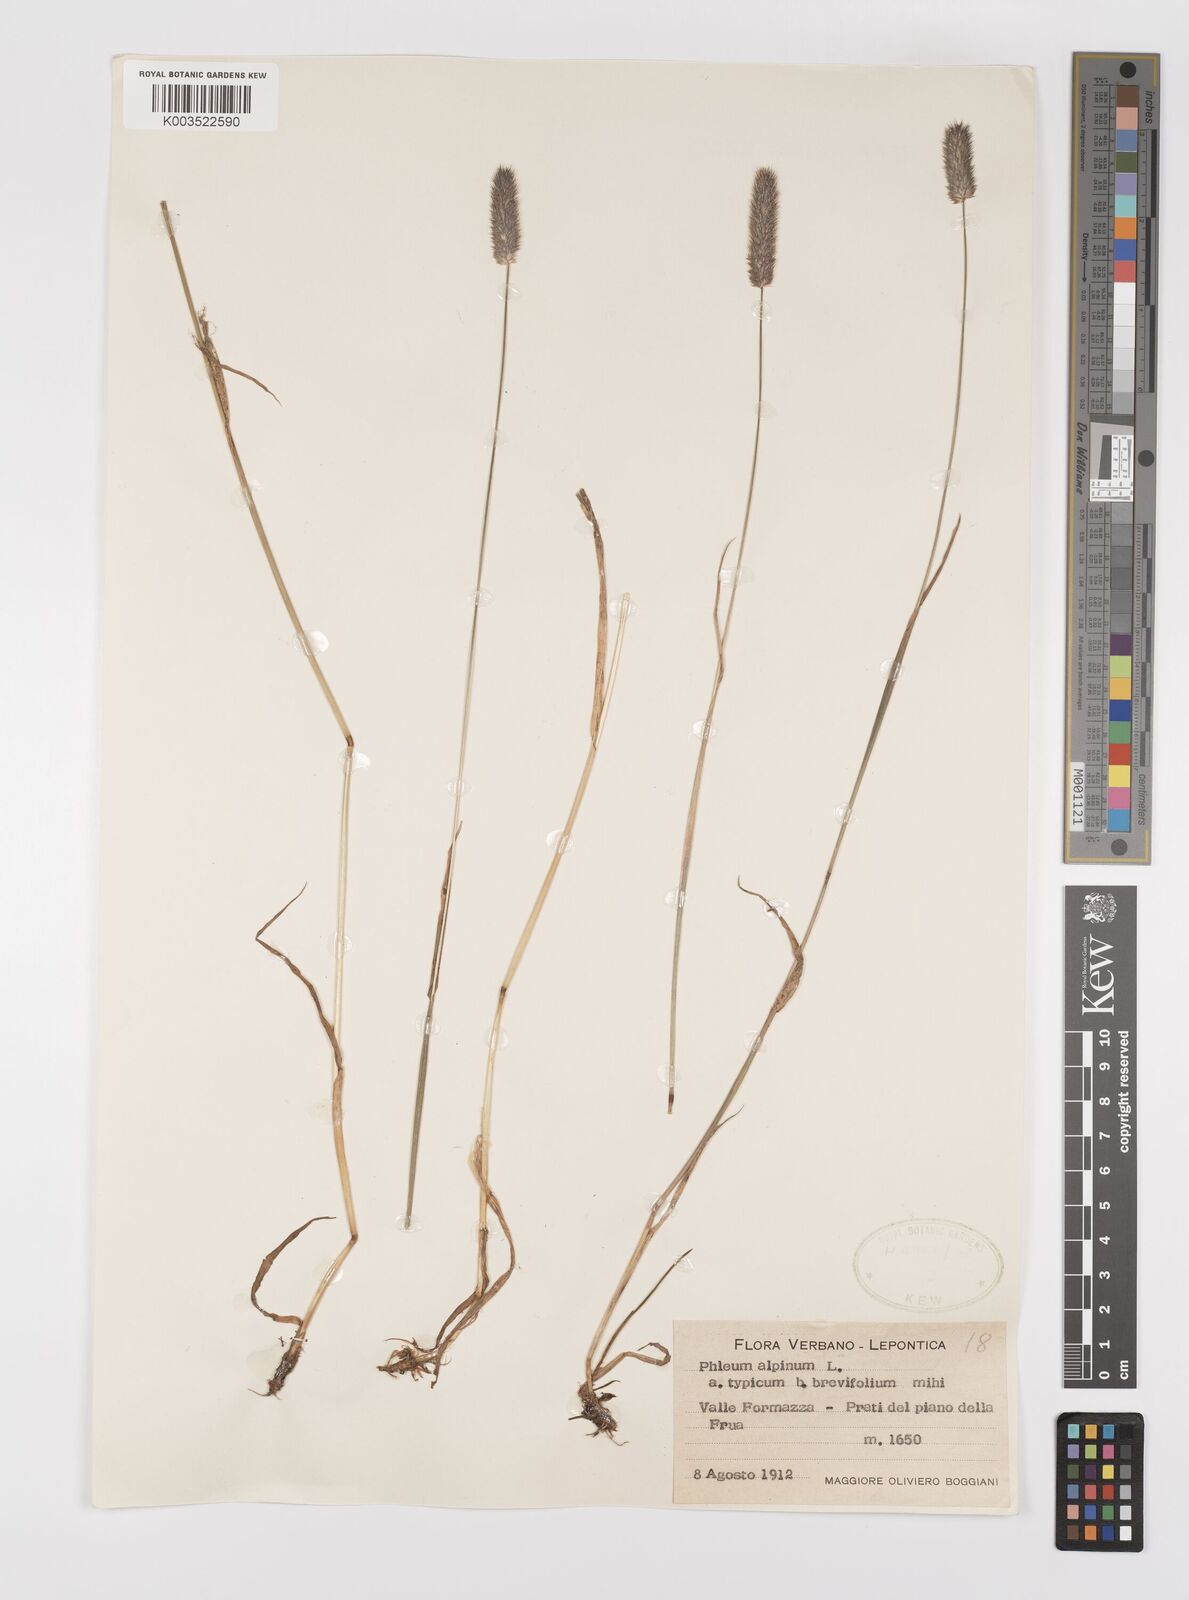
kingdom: Plantae
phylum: Tracheophyta
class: Liliopsida
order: Poales
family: Poaceae
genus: Phleum
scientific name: Phleum alpinum
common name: Alpine cat's-tail
